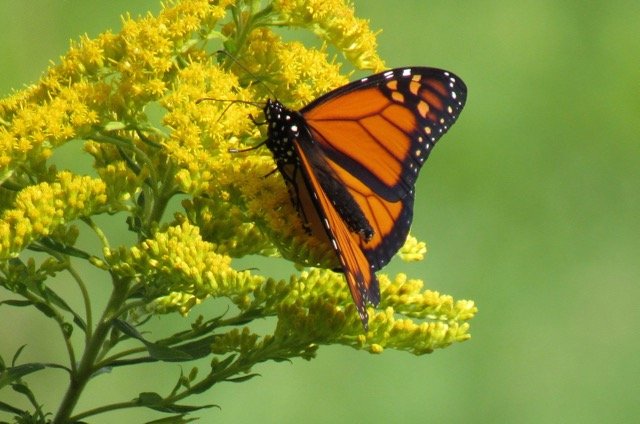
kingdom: Animalia
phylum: Arthropoda
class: Insecta
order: Lepidoptera
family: Nymphalidae
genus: Danaus
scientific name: Danaus plexippus
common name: Monarch
